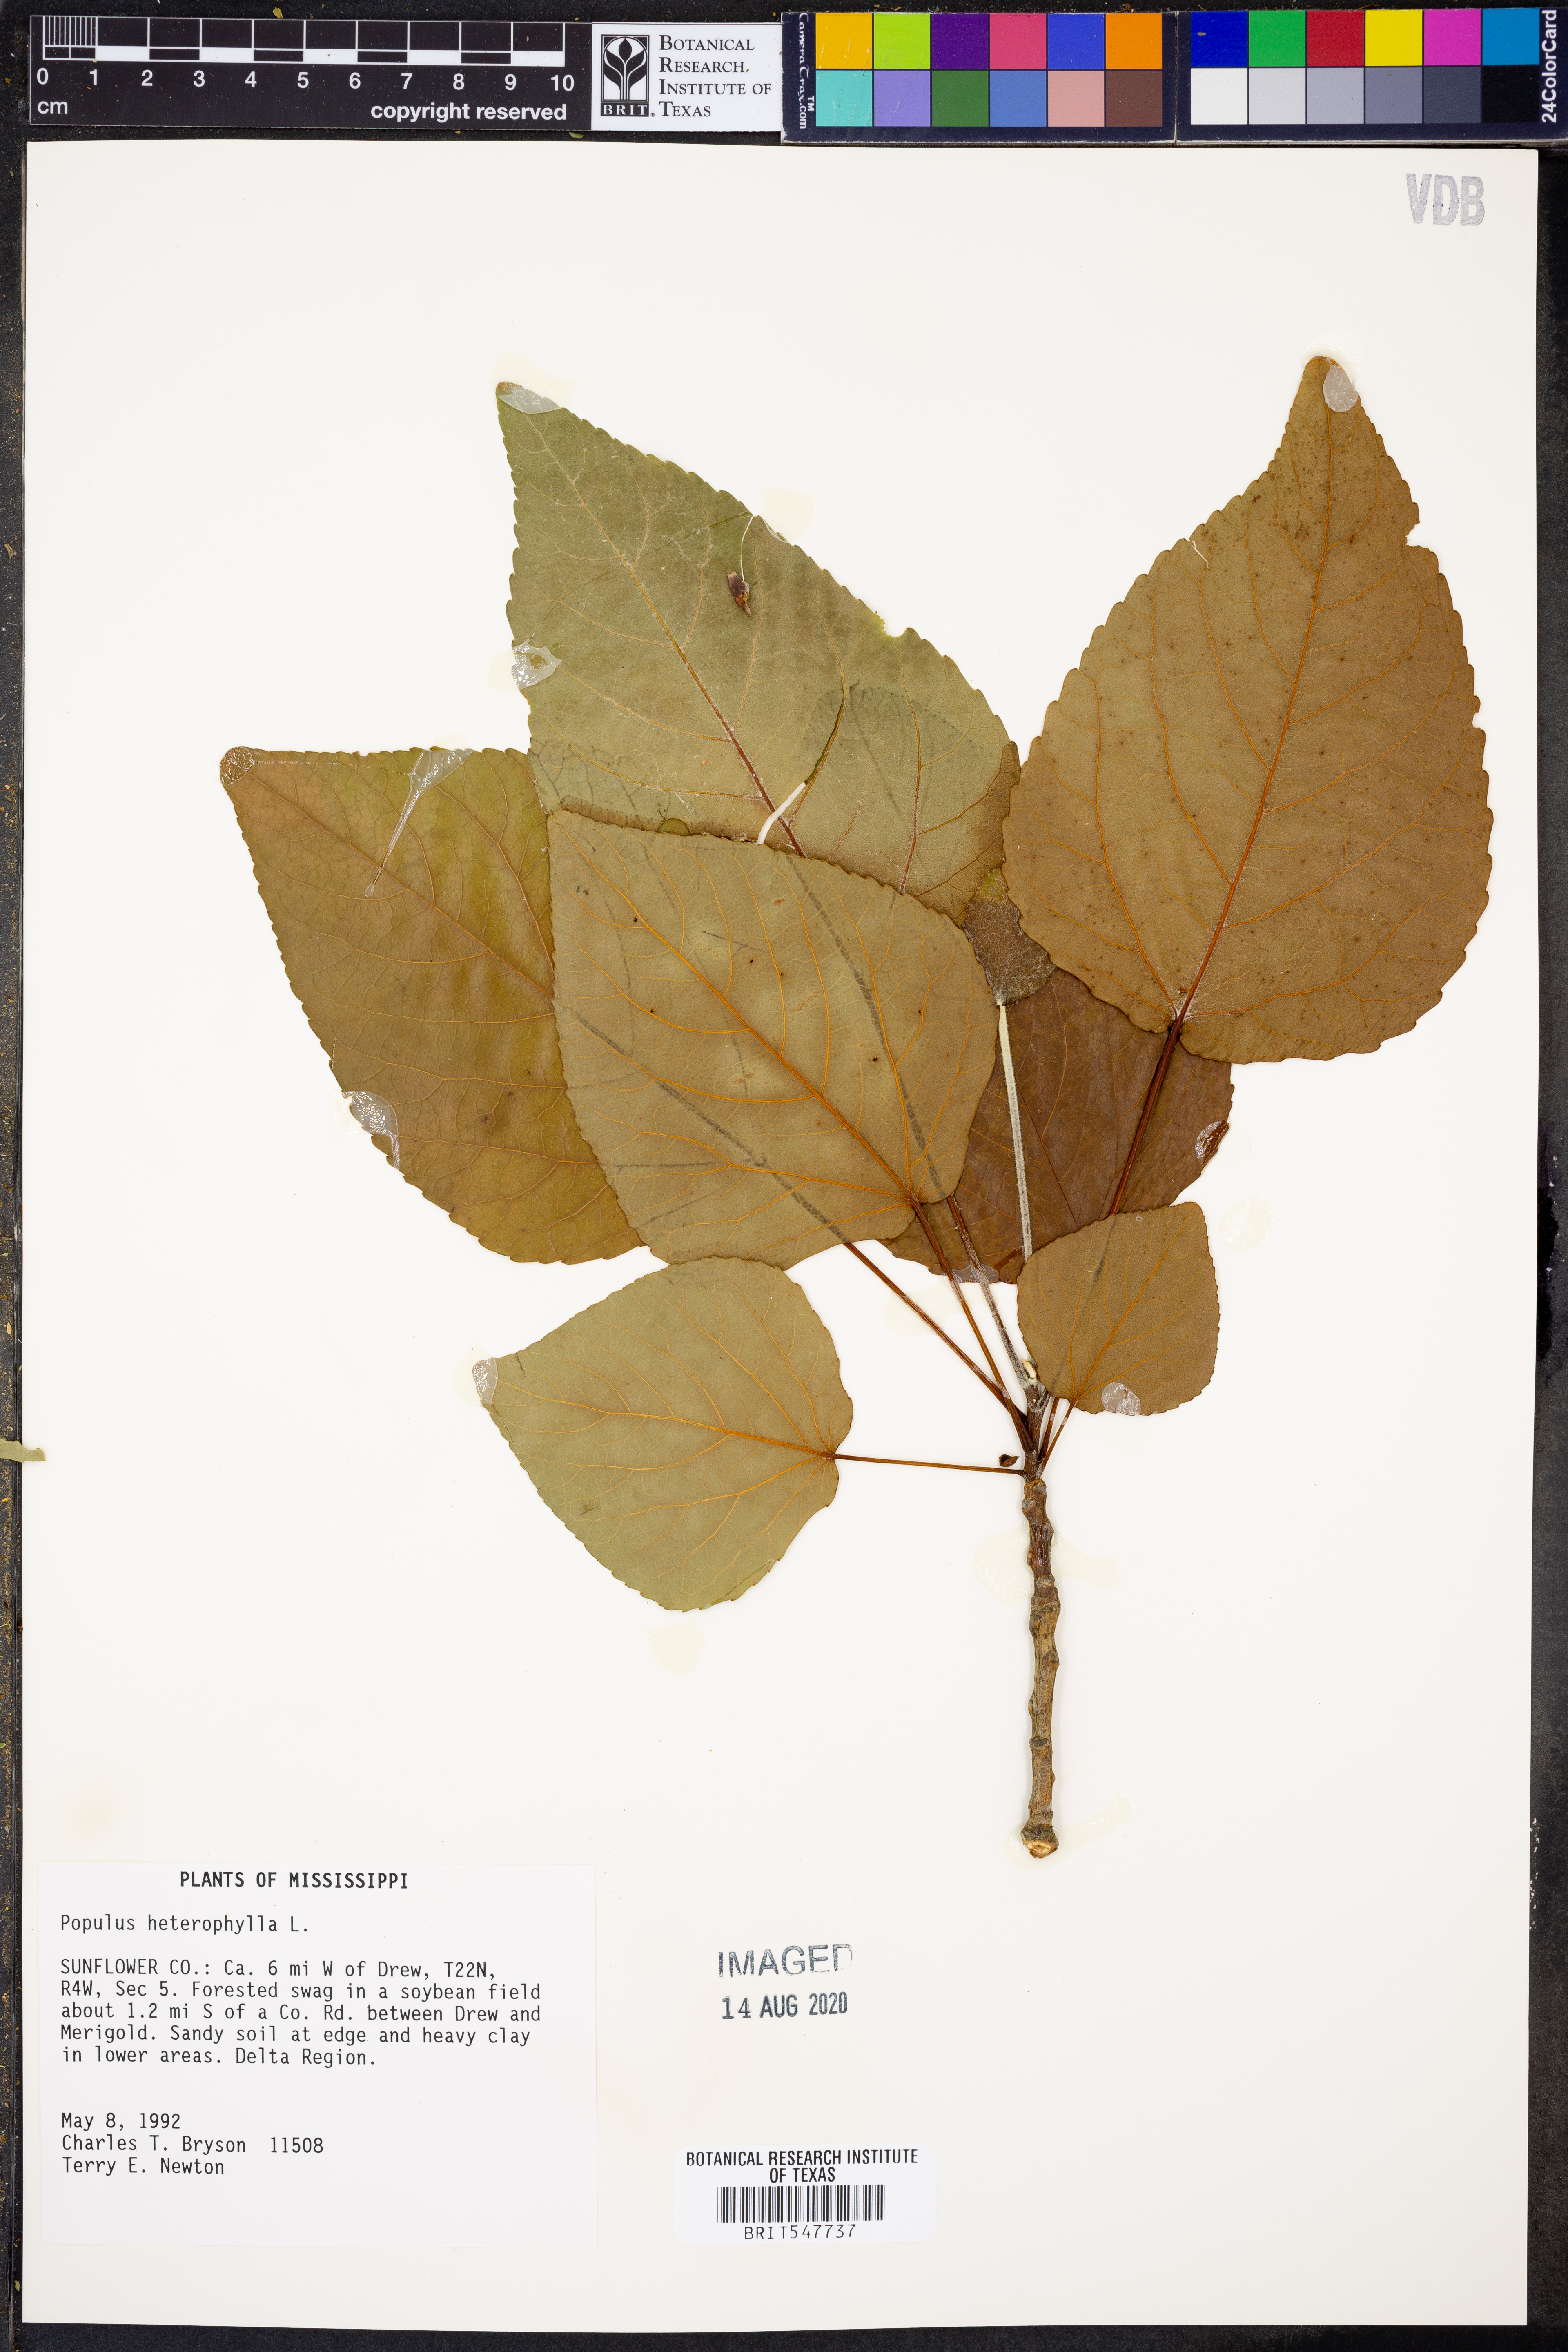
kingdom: Plantae
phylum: Tracheophyta
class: Magnoliopsida
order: Malpighiales
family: Salicaceae
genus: Populus
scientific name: Populus heterophylla
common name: Downy poplar
